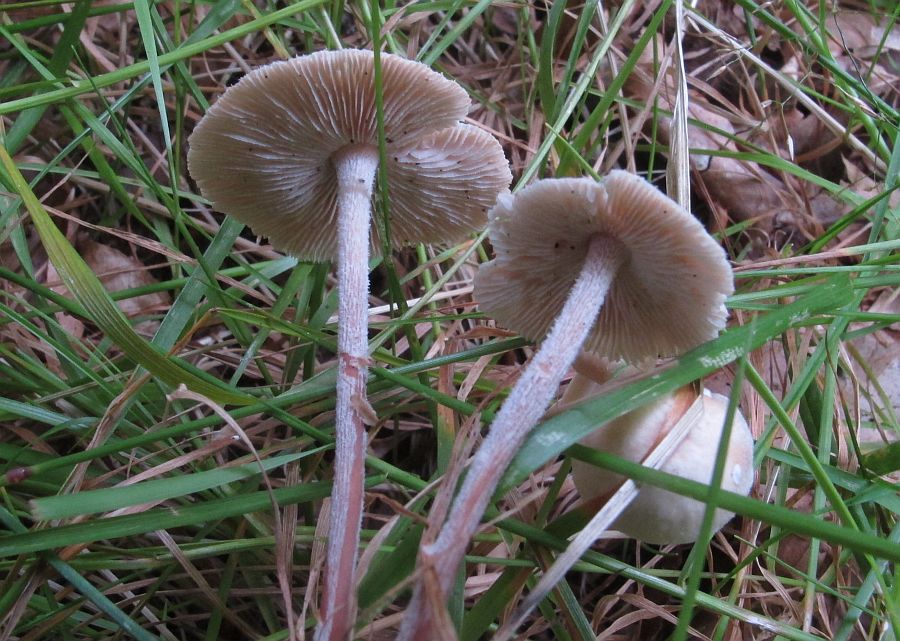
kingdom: Fungi
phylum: Basidiomycota
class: Agaricomycetes
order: Agaricales
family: Omphalotaceae
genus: Collybiopsis
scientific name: Collybiopsis confluens
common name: knippe-fladhat
